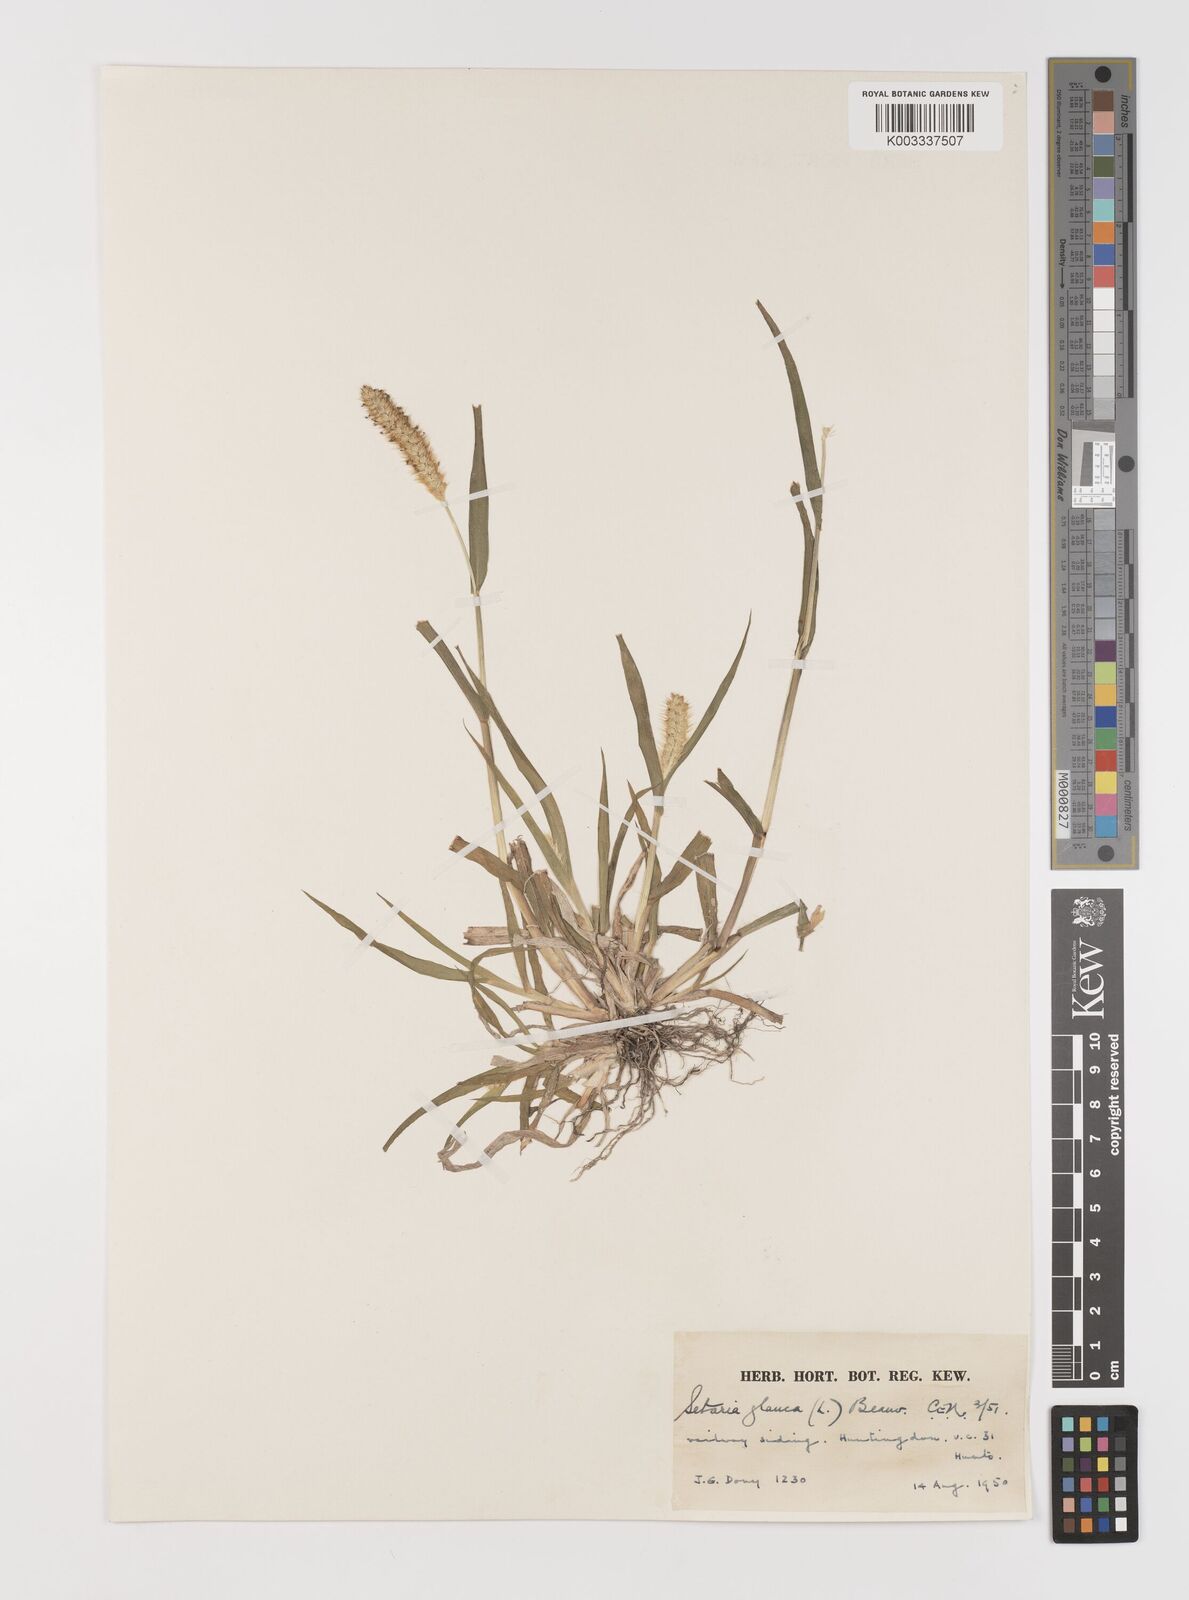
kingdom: Plantae
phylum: Tracheophyta
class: Liliopsida
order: Poales
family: Poaceae
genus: Setaria
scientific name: Setaria pumila
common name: Yellow bristle-grass
